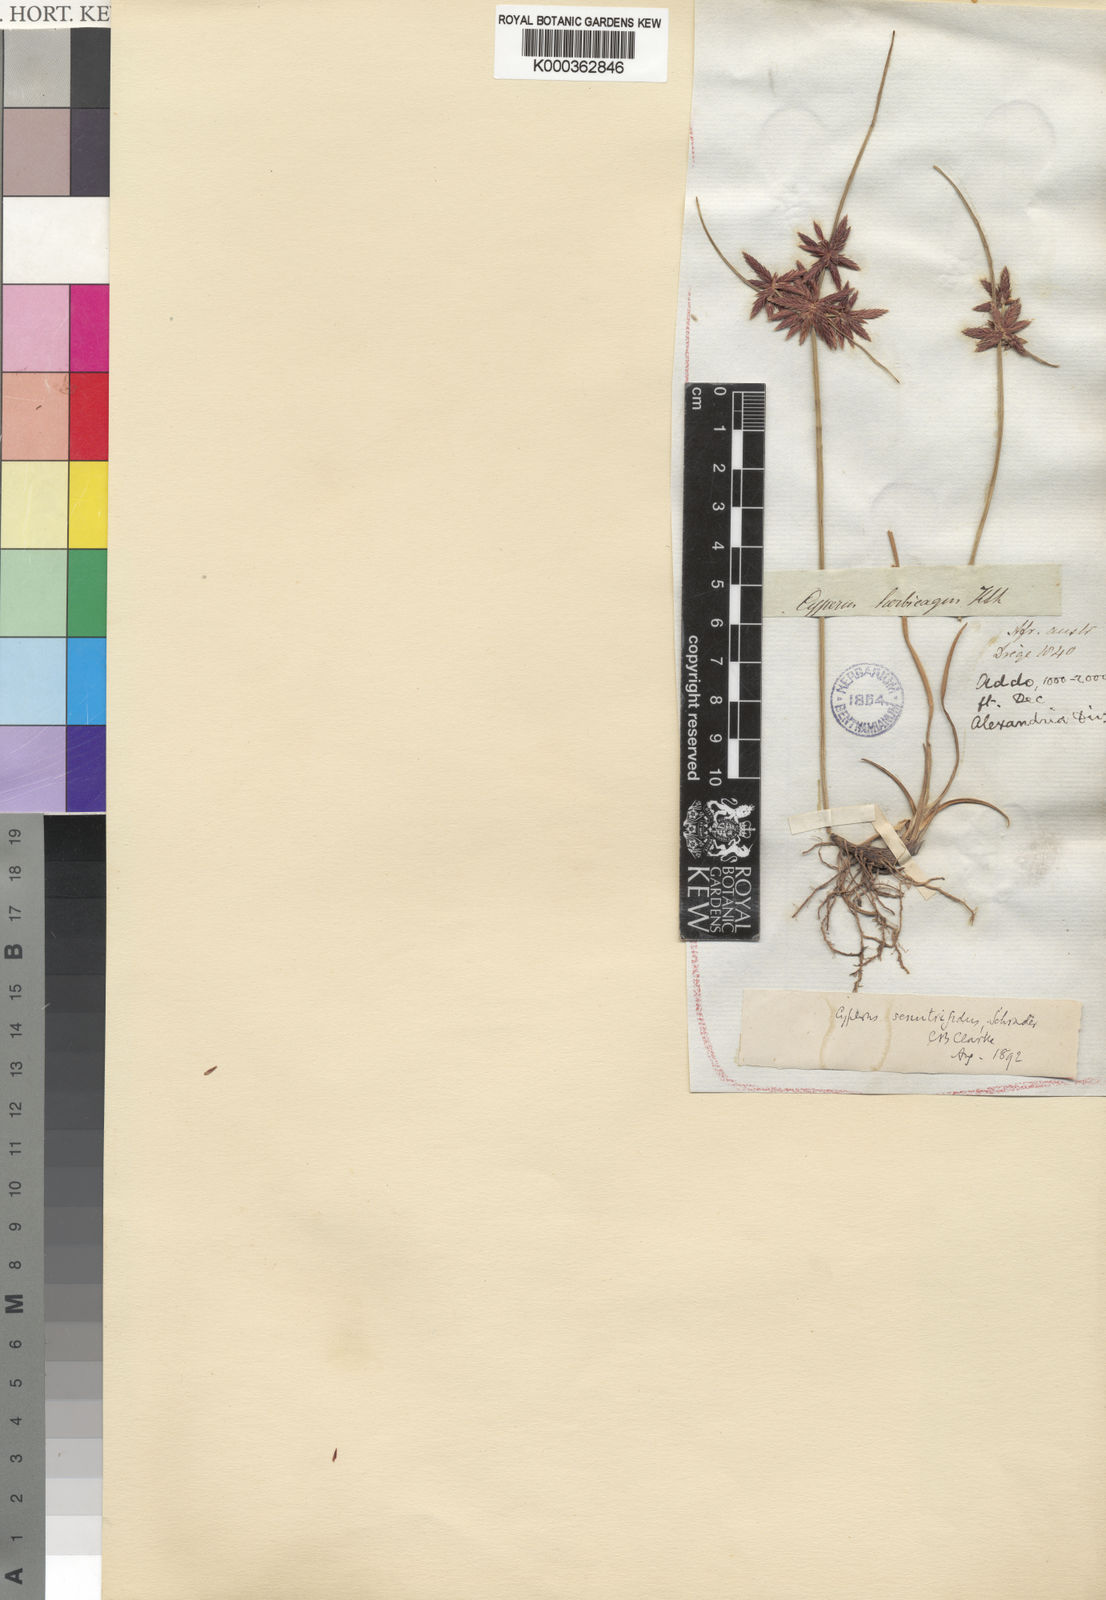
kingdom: Plantae
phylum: Tracheophyta
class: Liliopsida
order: Poales
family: Cyperaceae
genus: Cyperus
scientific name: Cyperus semitrifidus
